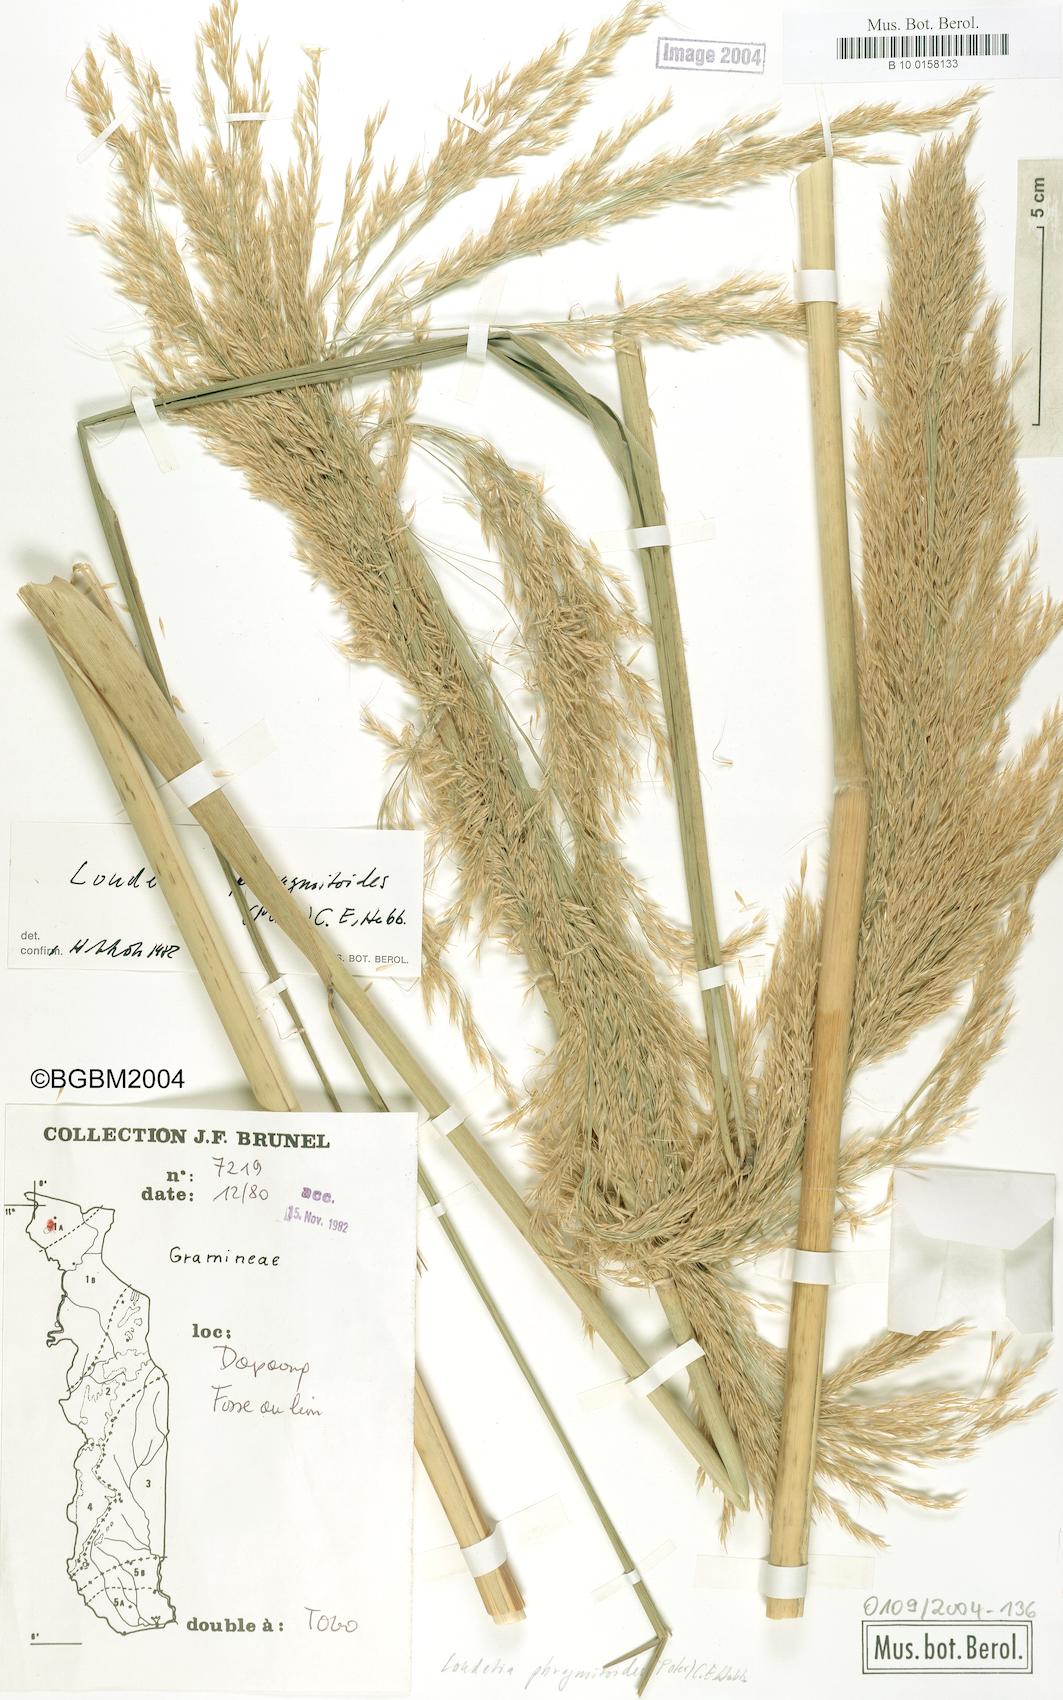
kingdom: Plantae
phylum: Tracheophyta
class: Liliopsida
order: Poales
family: Poaceae
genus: Loudetia
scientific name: Loudetia phragmitoides
